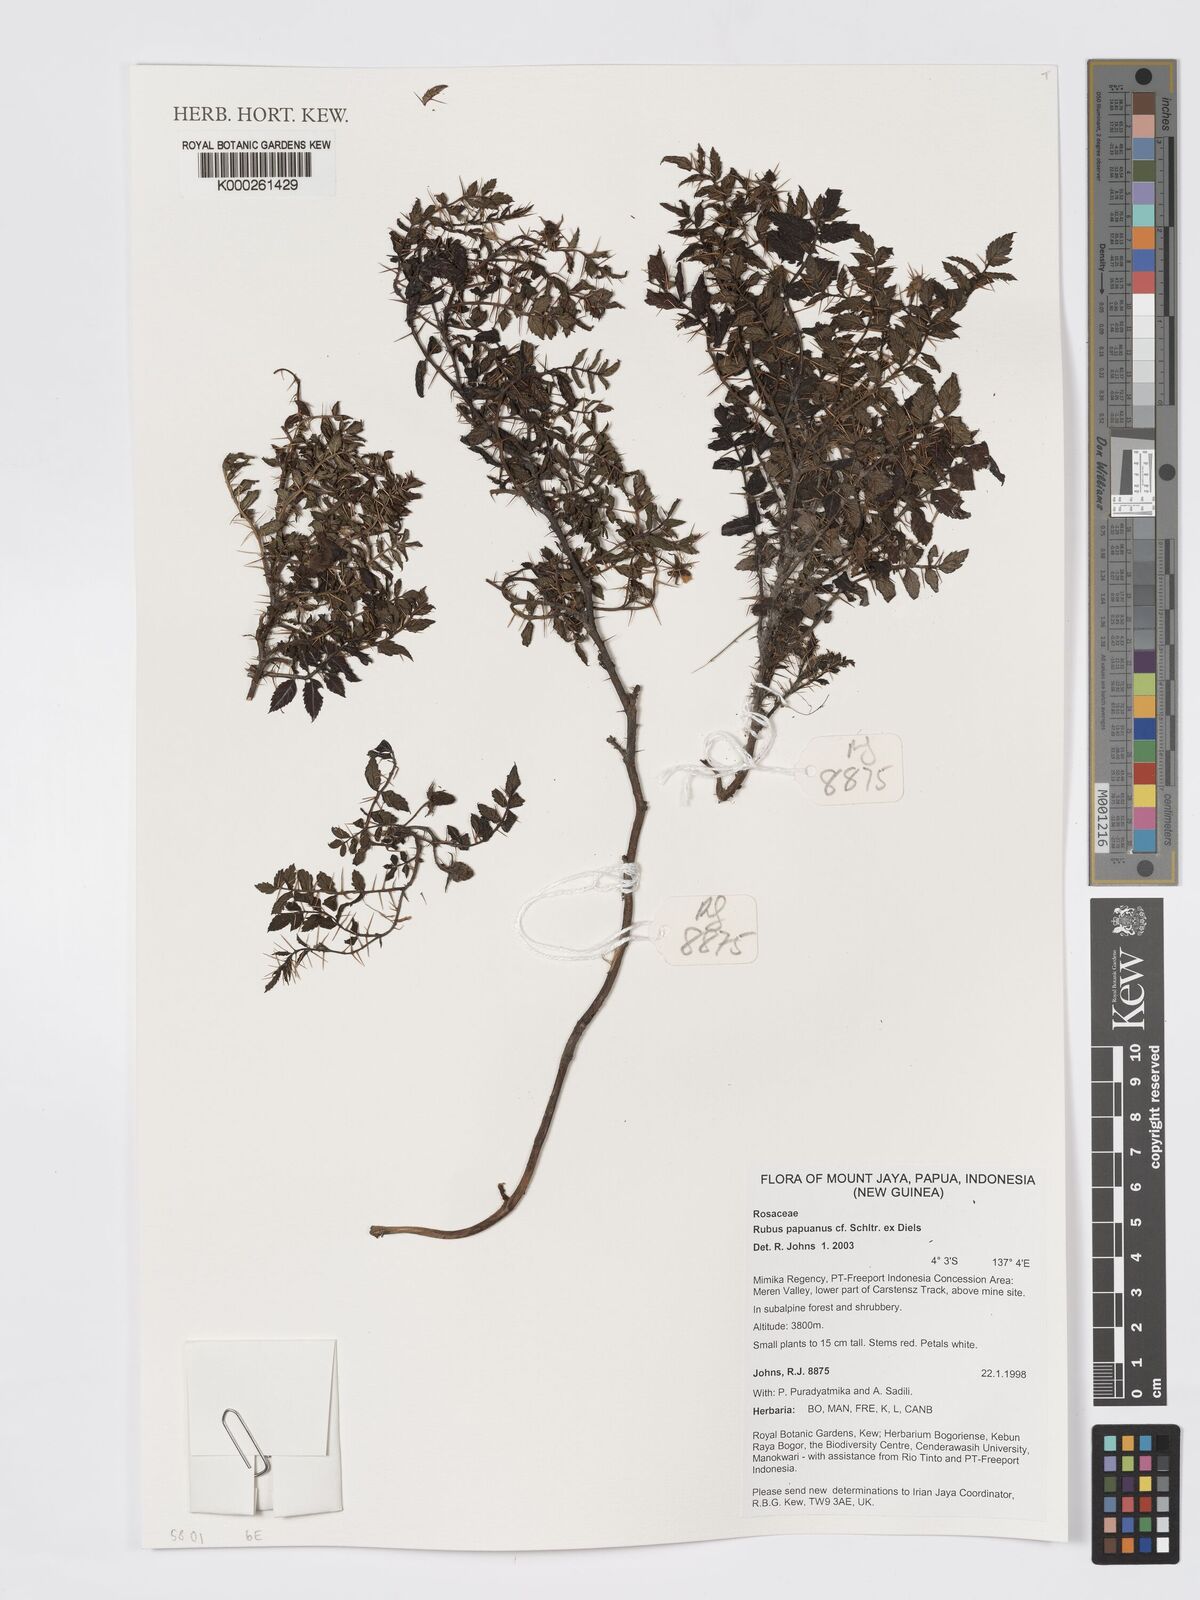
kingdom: Plantae
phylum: Tracheophyta
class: Magnoliopsida
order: Rosales
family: Rosaceae
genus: Rubus
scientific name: Rubus papuanus
